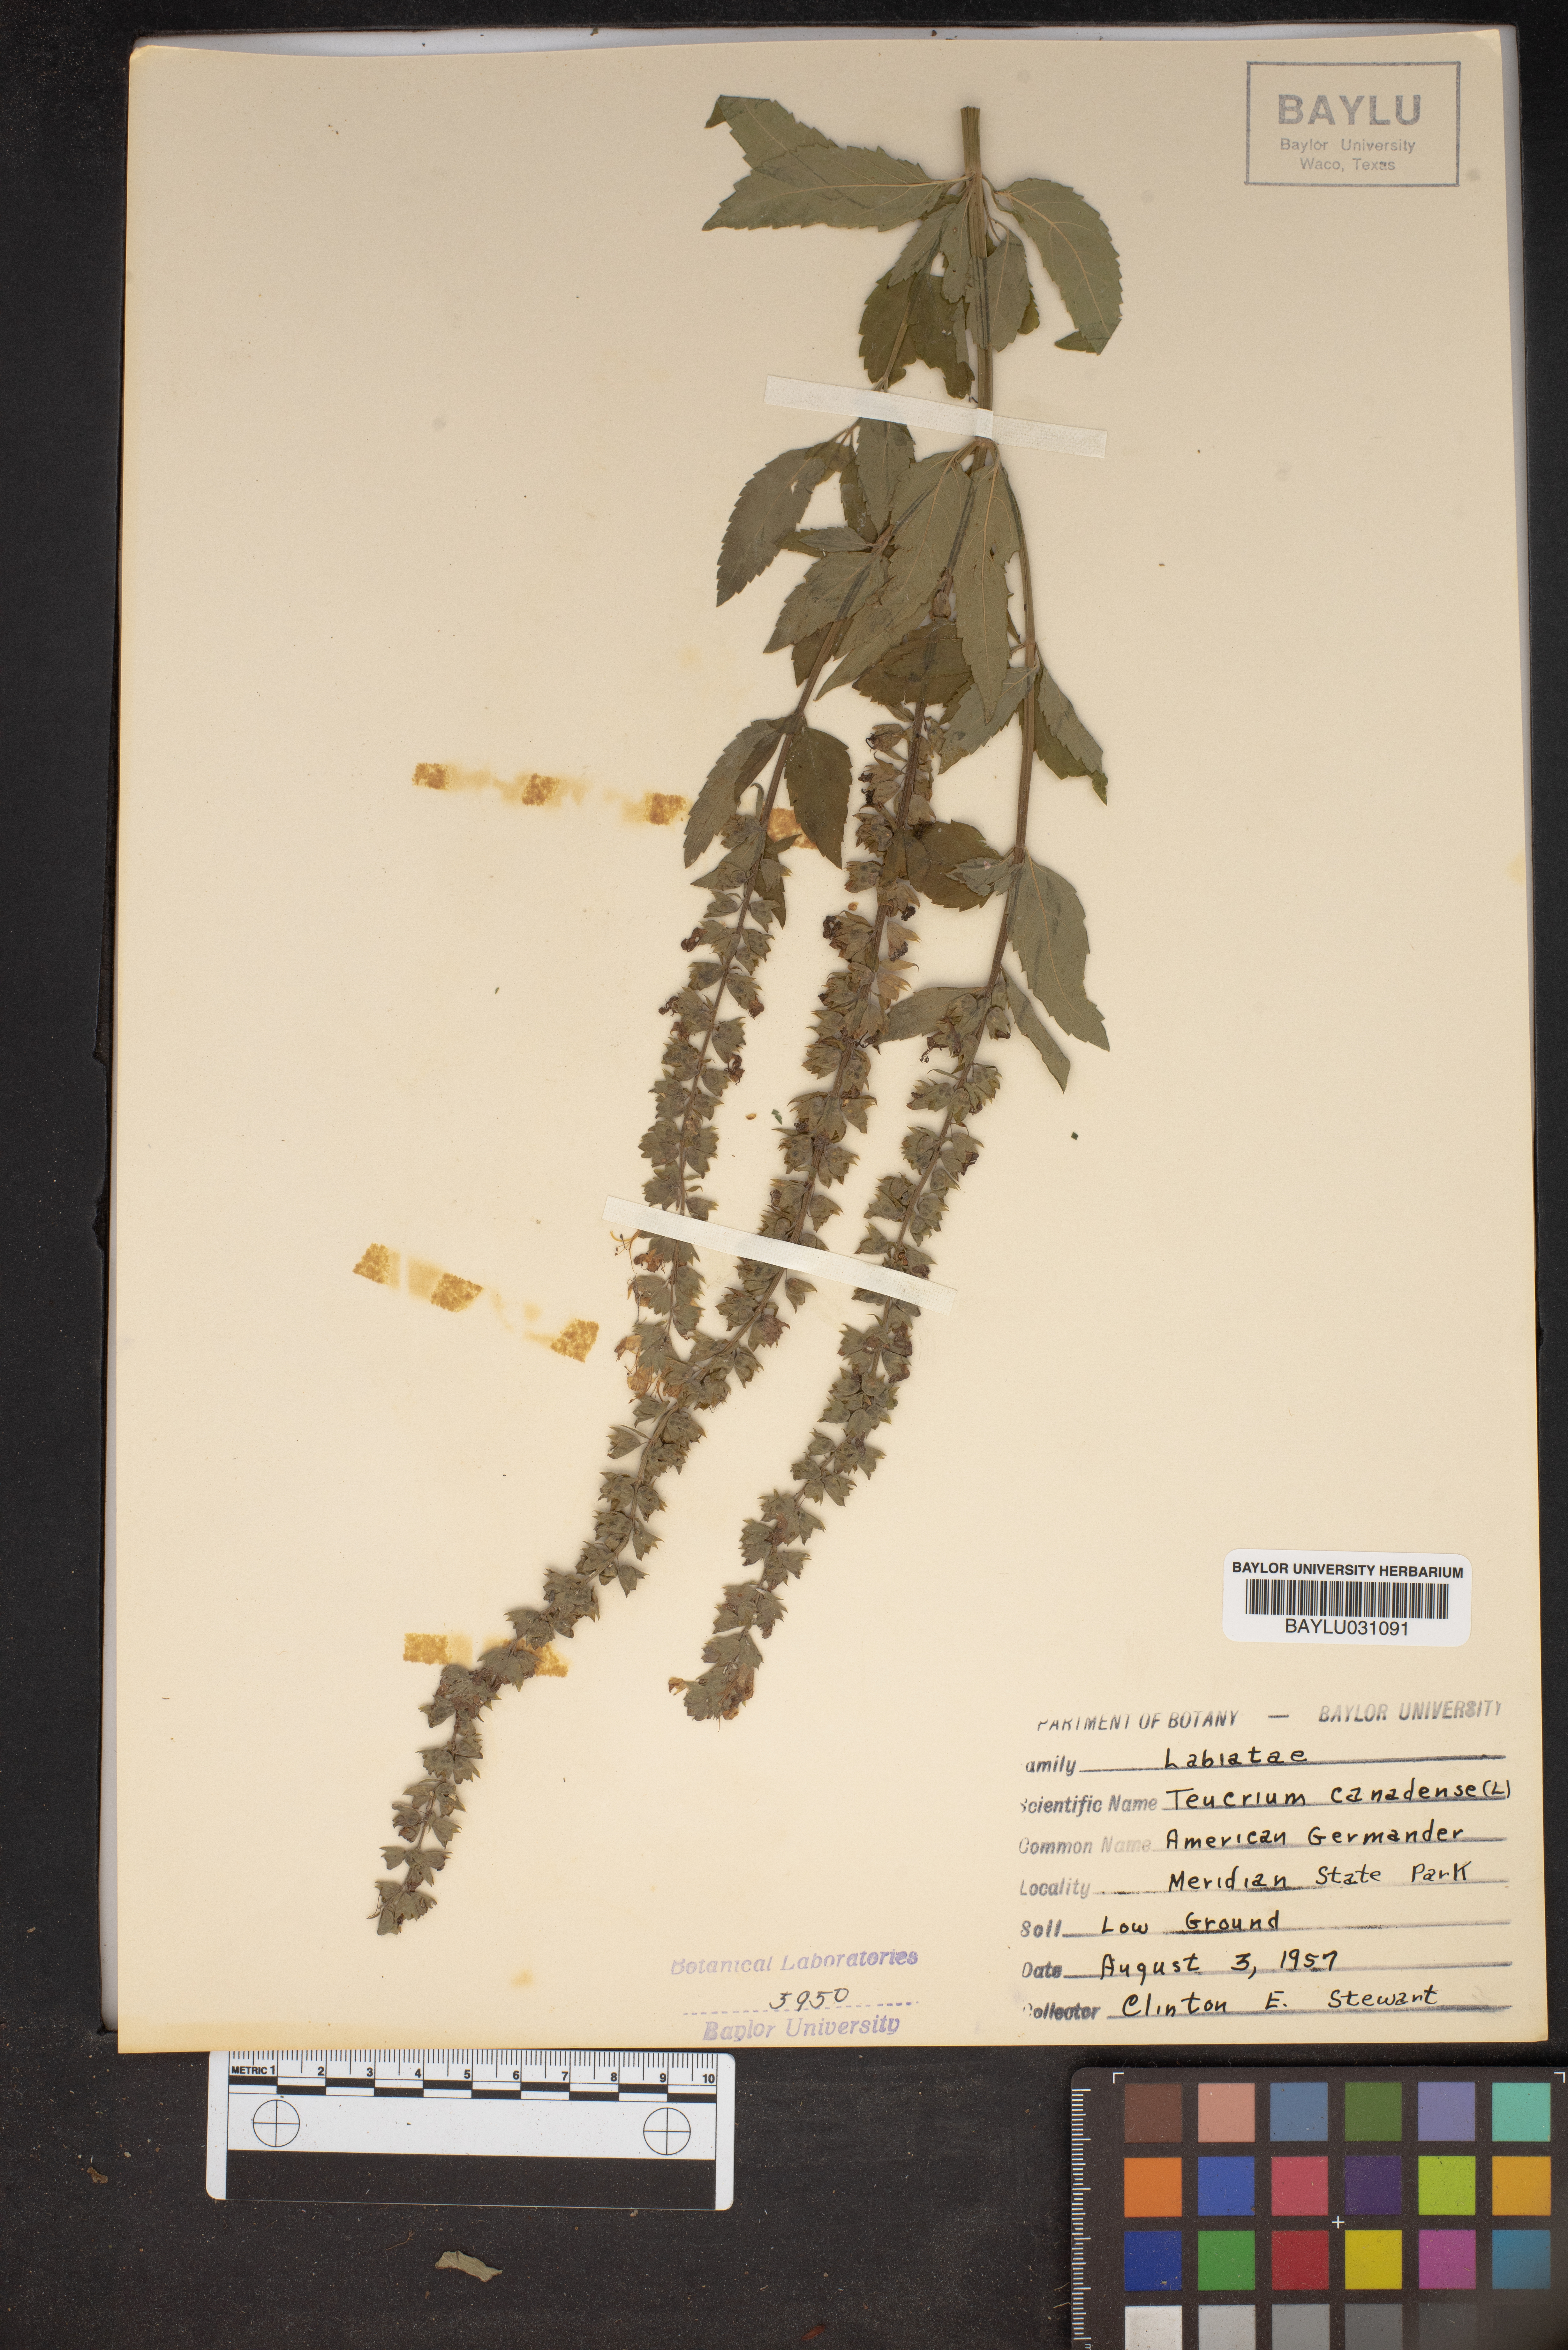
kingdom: Plantae
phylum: Tracheophyta
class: Magnoliopsida
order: Lamiales
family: Lamiaceae
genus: Teucrium
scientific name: Teucrium canadense
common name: American germander
